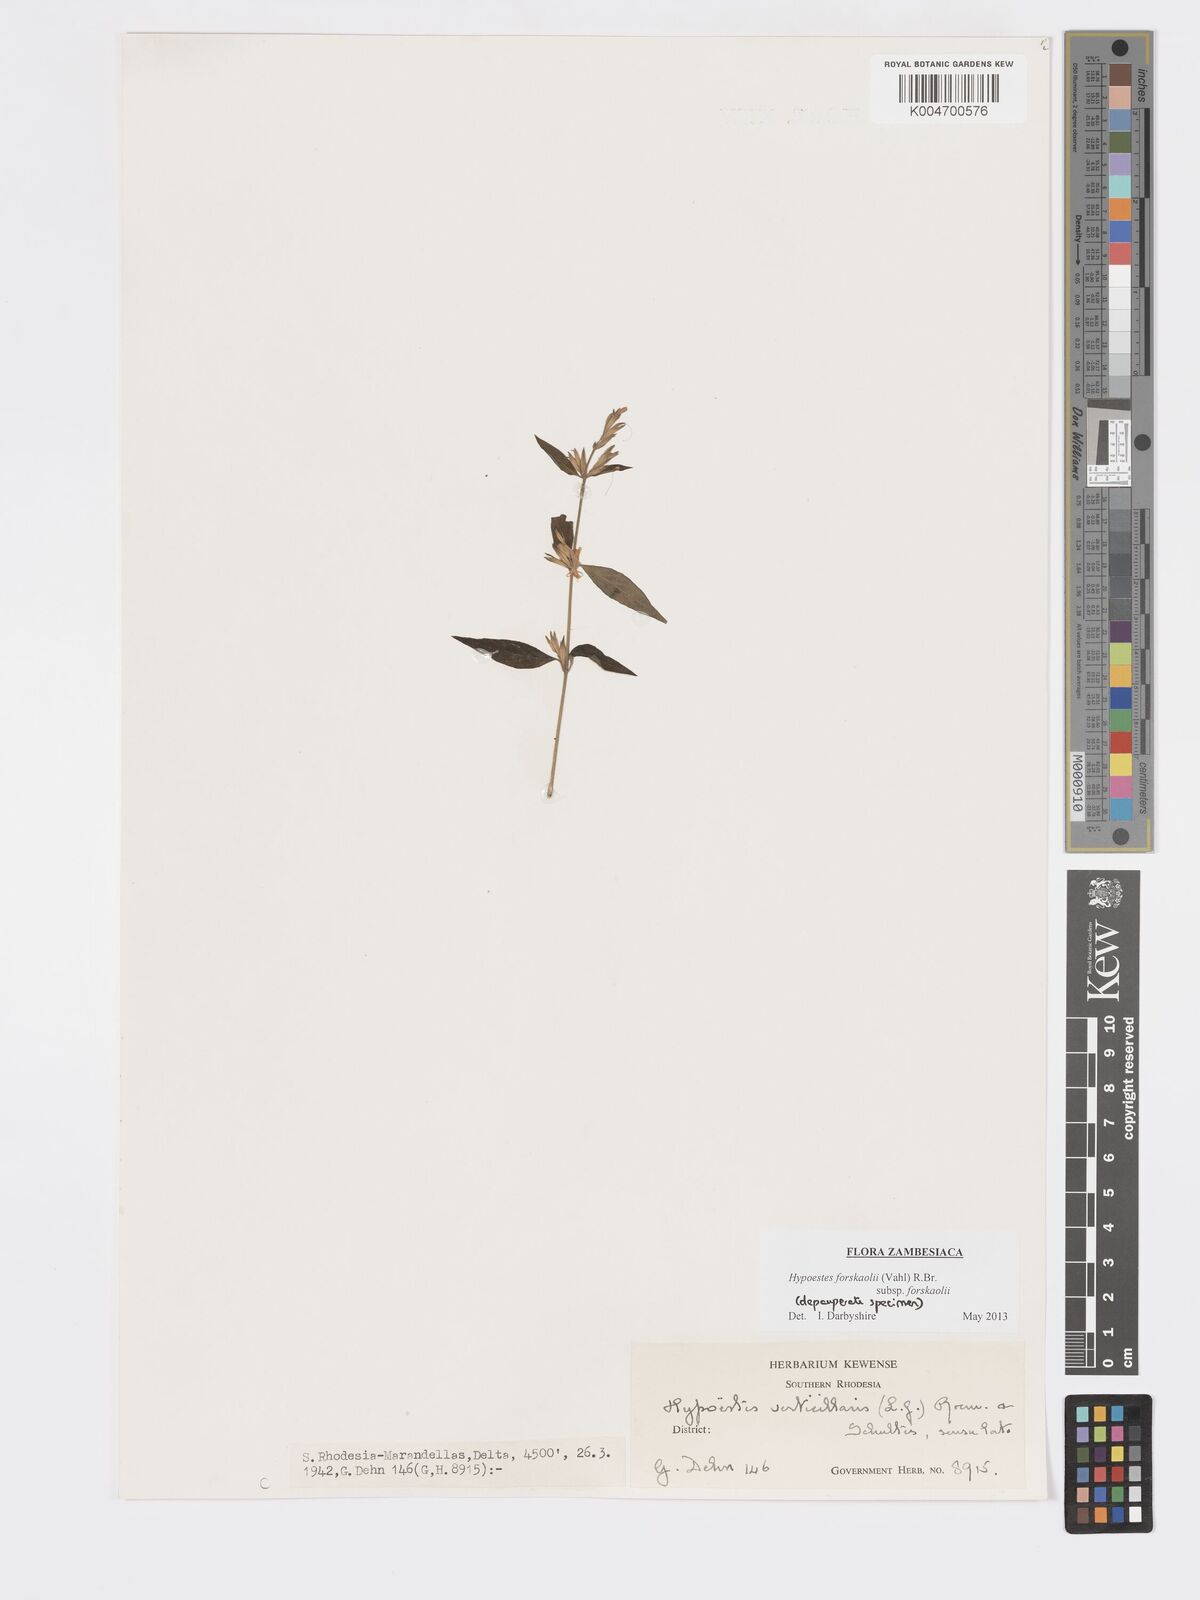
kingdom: Plantae
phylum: Tracheophyta
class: Magnoliopsida
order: Lamiales
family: Acanthaceae
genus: Hypoestes
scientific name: Hypoestes forskaolii
